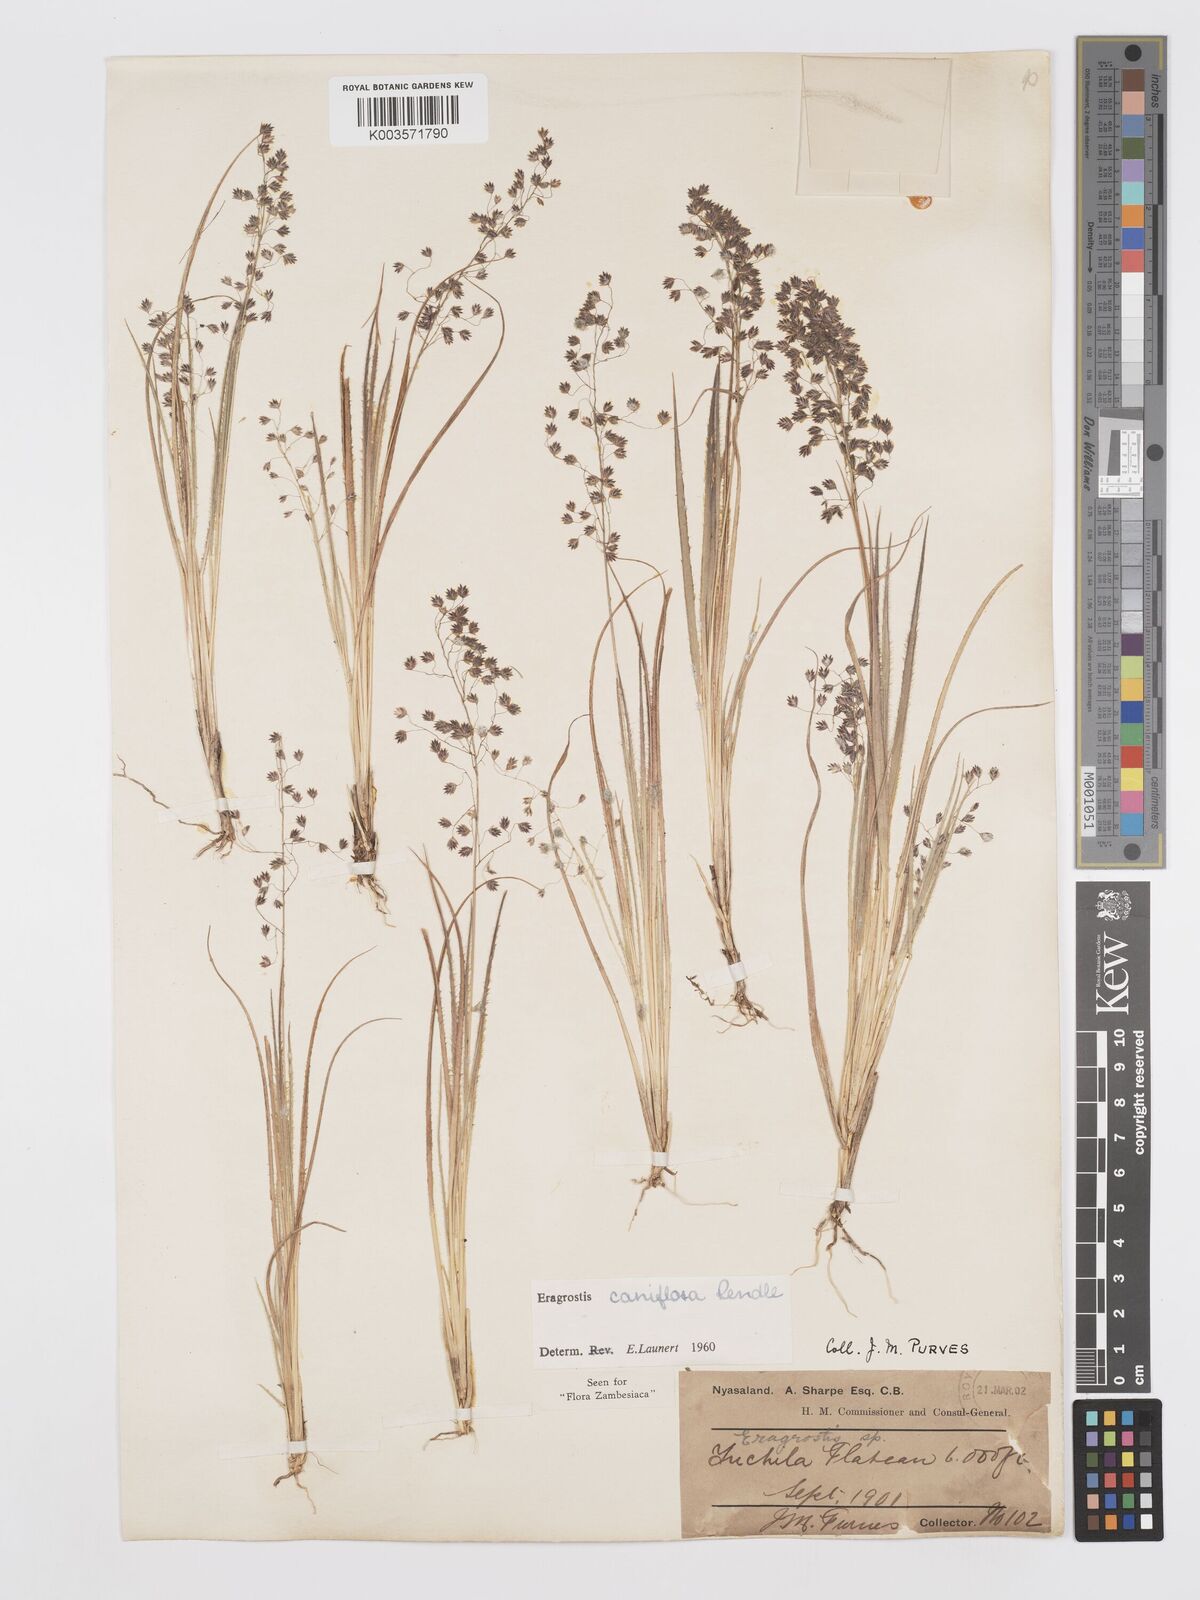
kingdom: Plantae
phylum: Tracheophyta
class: Liliopsida
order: Poales
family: Poaceae
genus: Eragrostis
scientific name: Eragrostis caniflora
